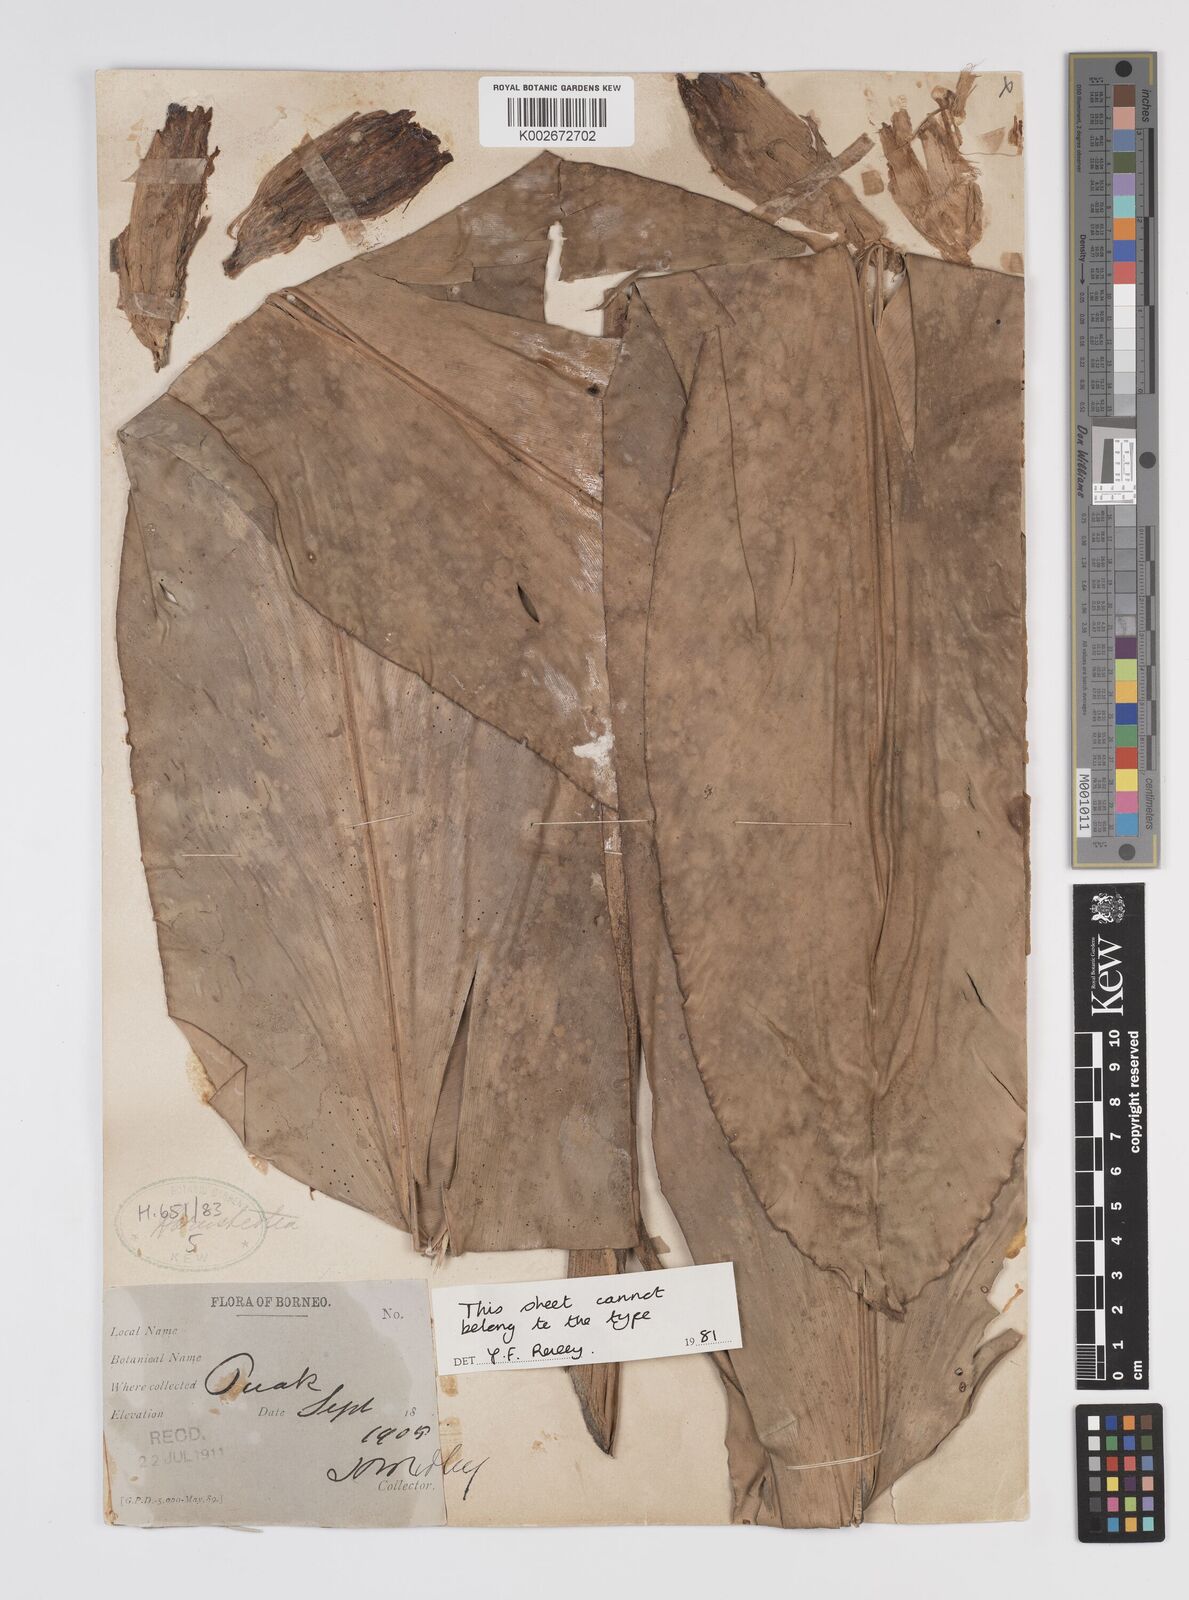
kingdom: Plantae
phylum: Tracheophyta
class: Liliopsida
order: Zingiberales
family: Zingiberaceae
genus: Etlingera
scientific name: Etlingera metriocheilos
